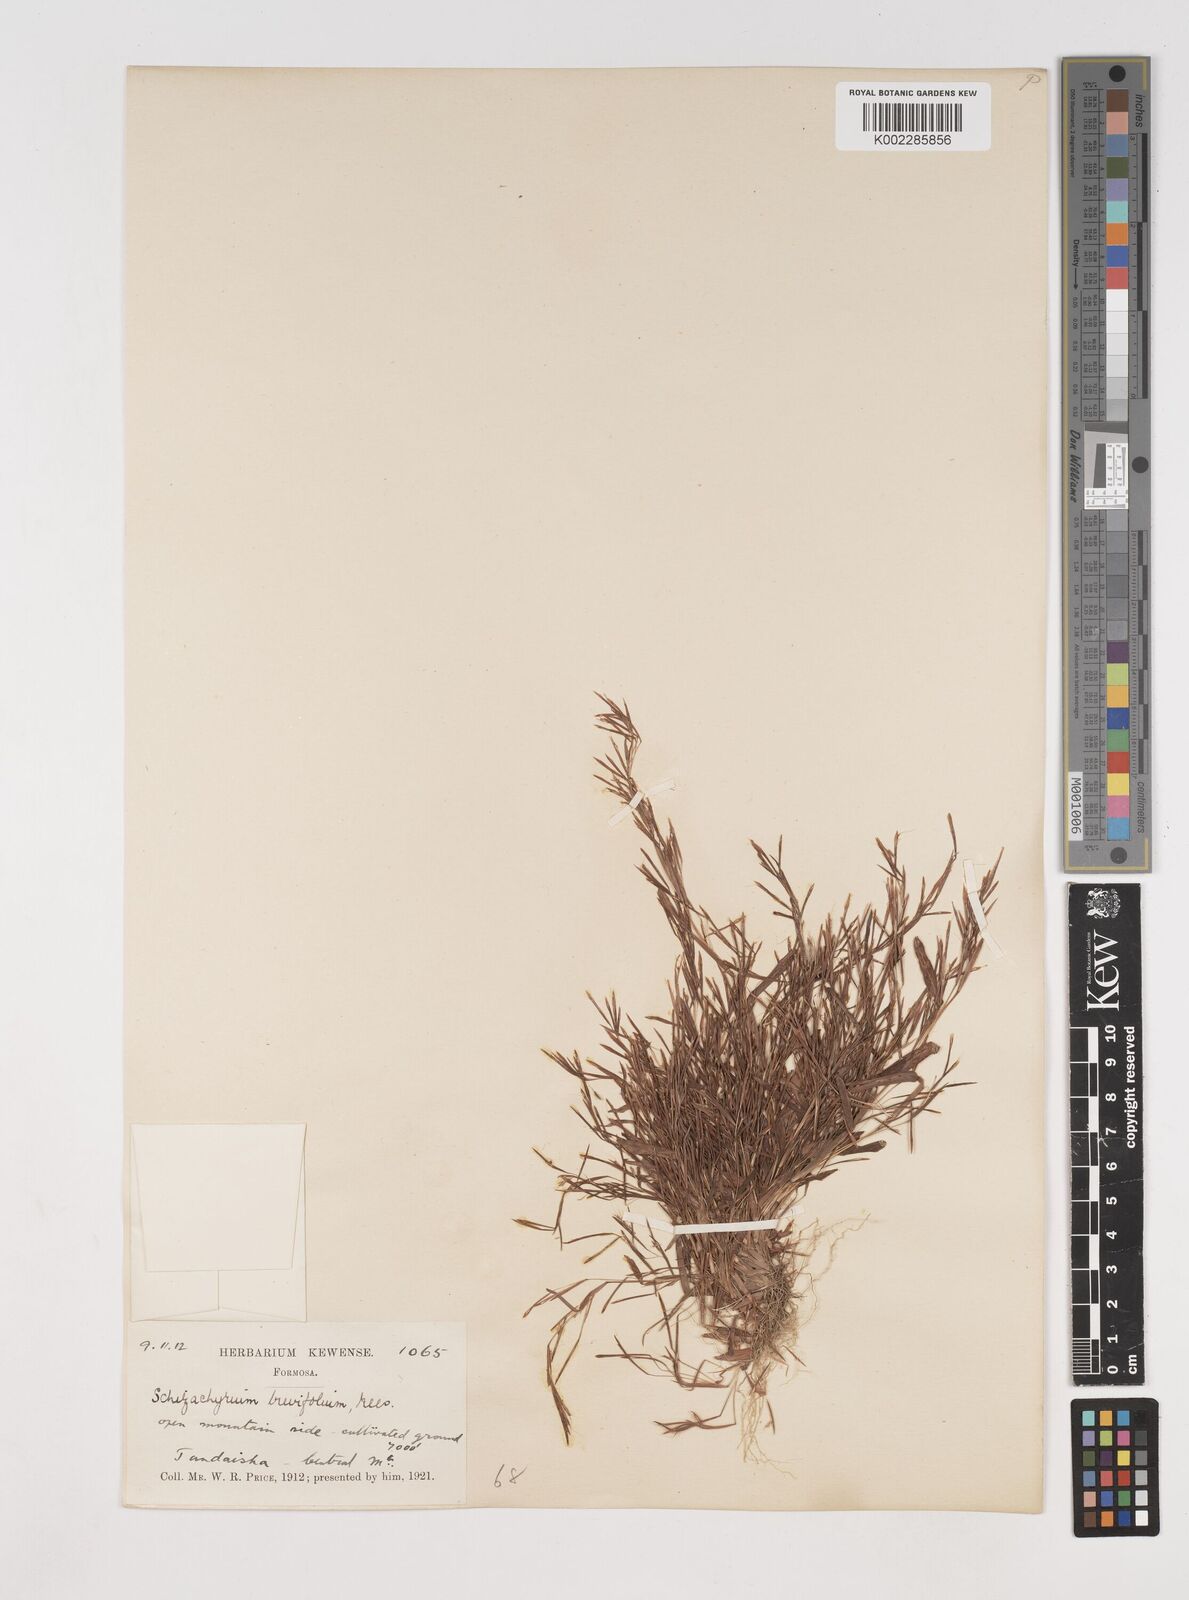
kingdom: Plantae
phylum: Tracheophyta
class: Liliopsida
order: Poales
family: Poaceae
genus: Schizachyrium
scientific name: Schizachyrium brevifolium
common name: Serillo dulce
